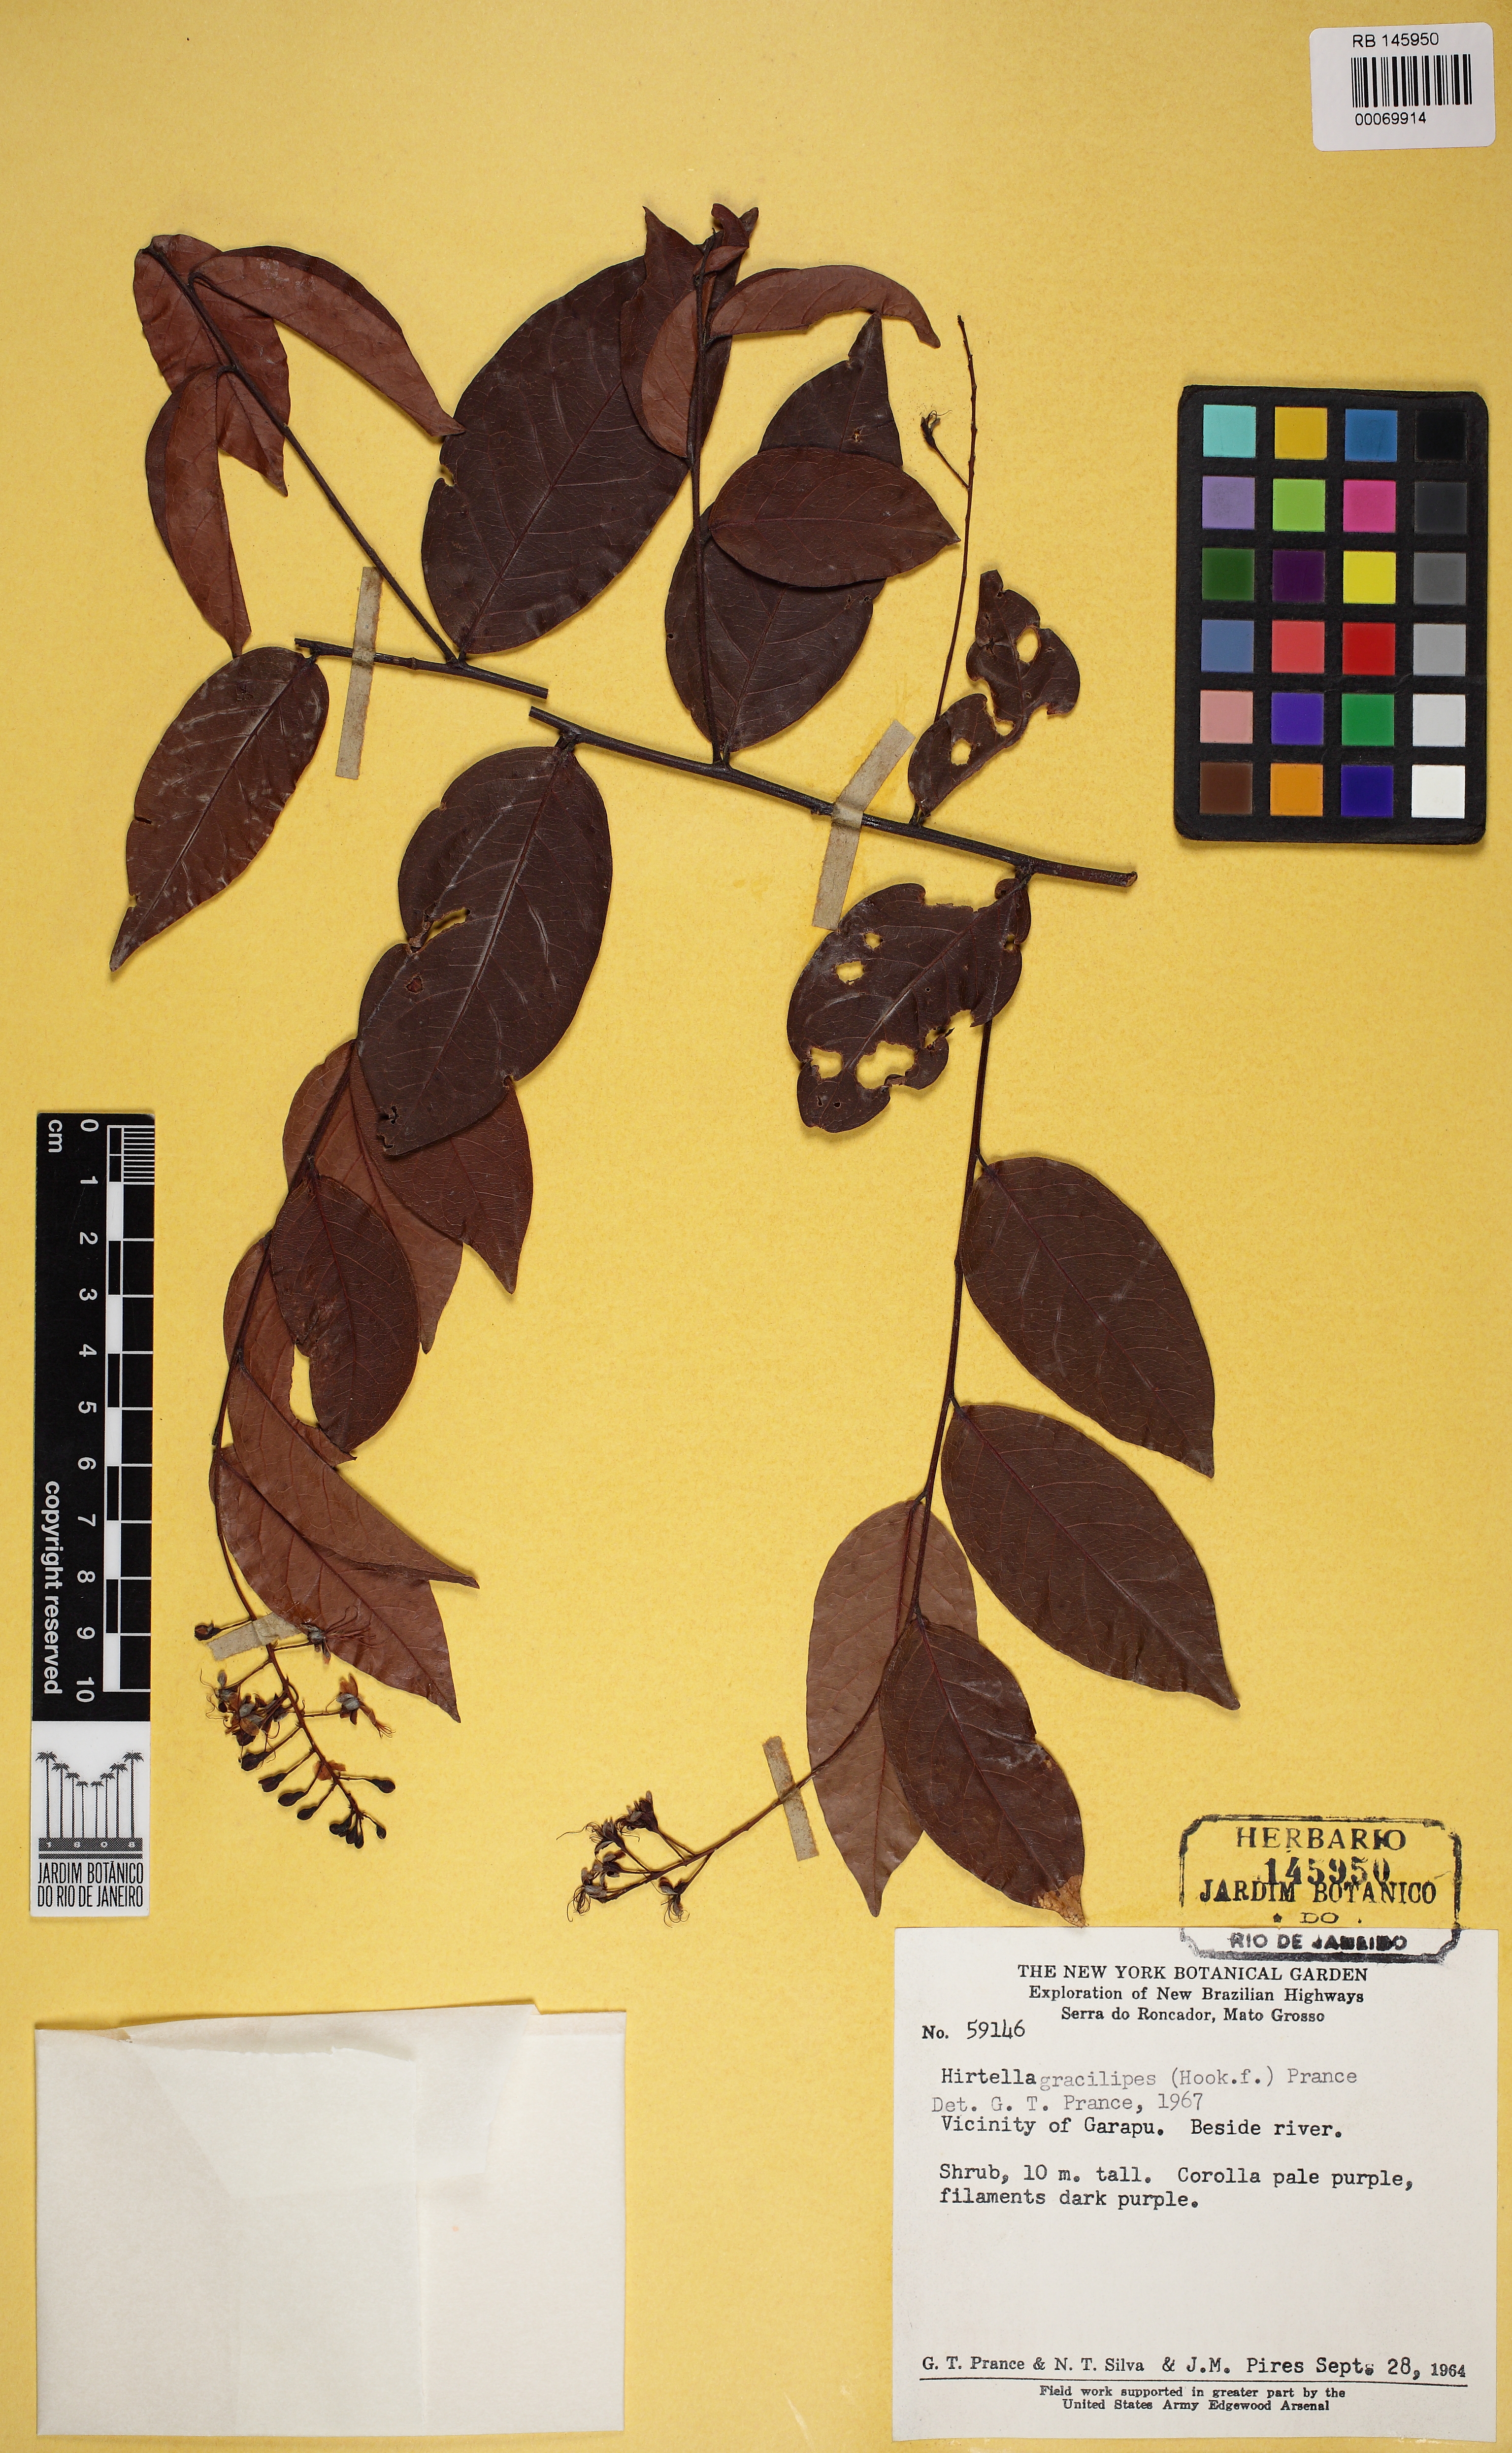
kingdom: Plantae
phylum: Tracheophyta
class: Magnoliopsida
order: Malpighiales
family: Chrysobalanaceae
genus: Hirtella
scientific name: Hirtella gracilipes
